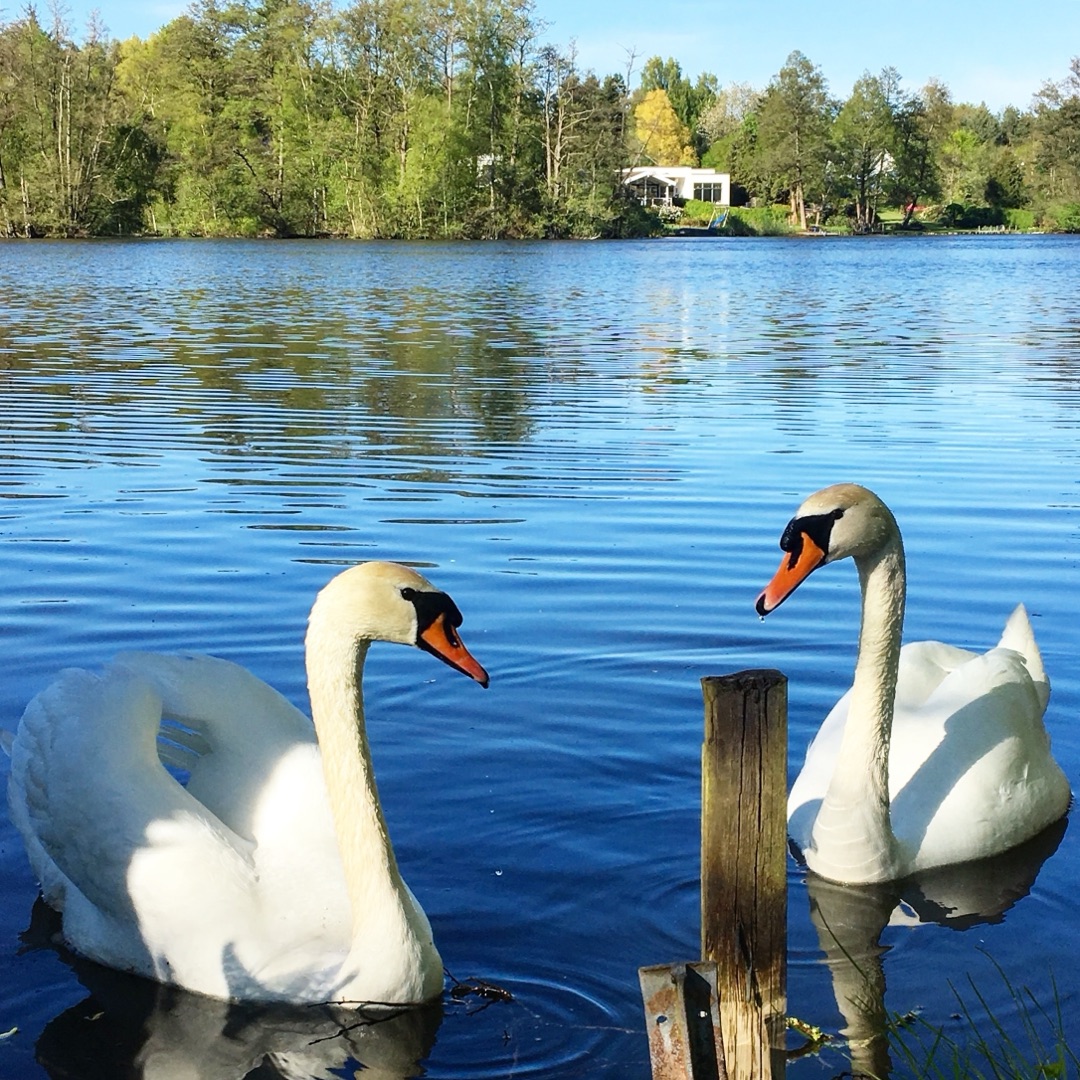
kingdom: Animalia
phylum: Chordata
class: Aves
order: Anseriformes
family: Anatidae
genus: Cygnus
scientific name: Cygnus olor
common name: Knopsvane
